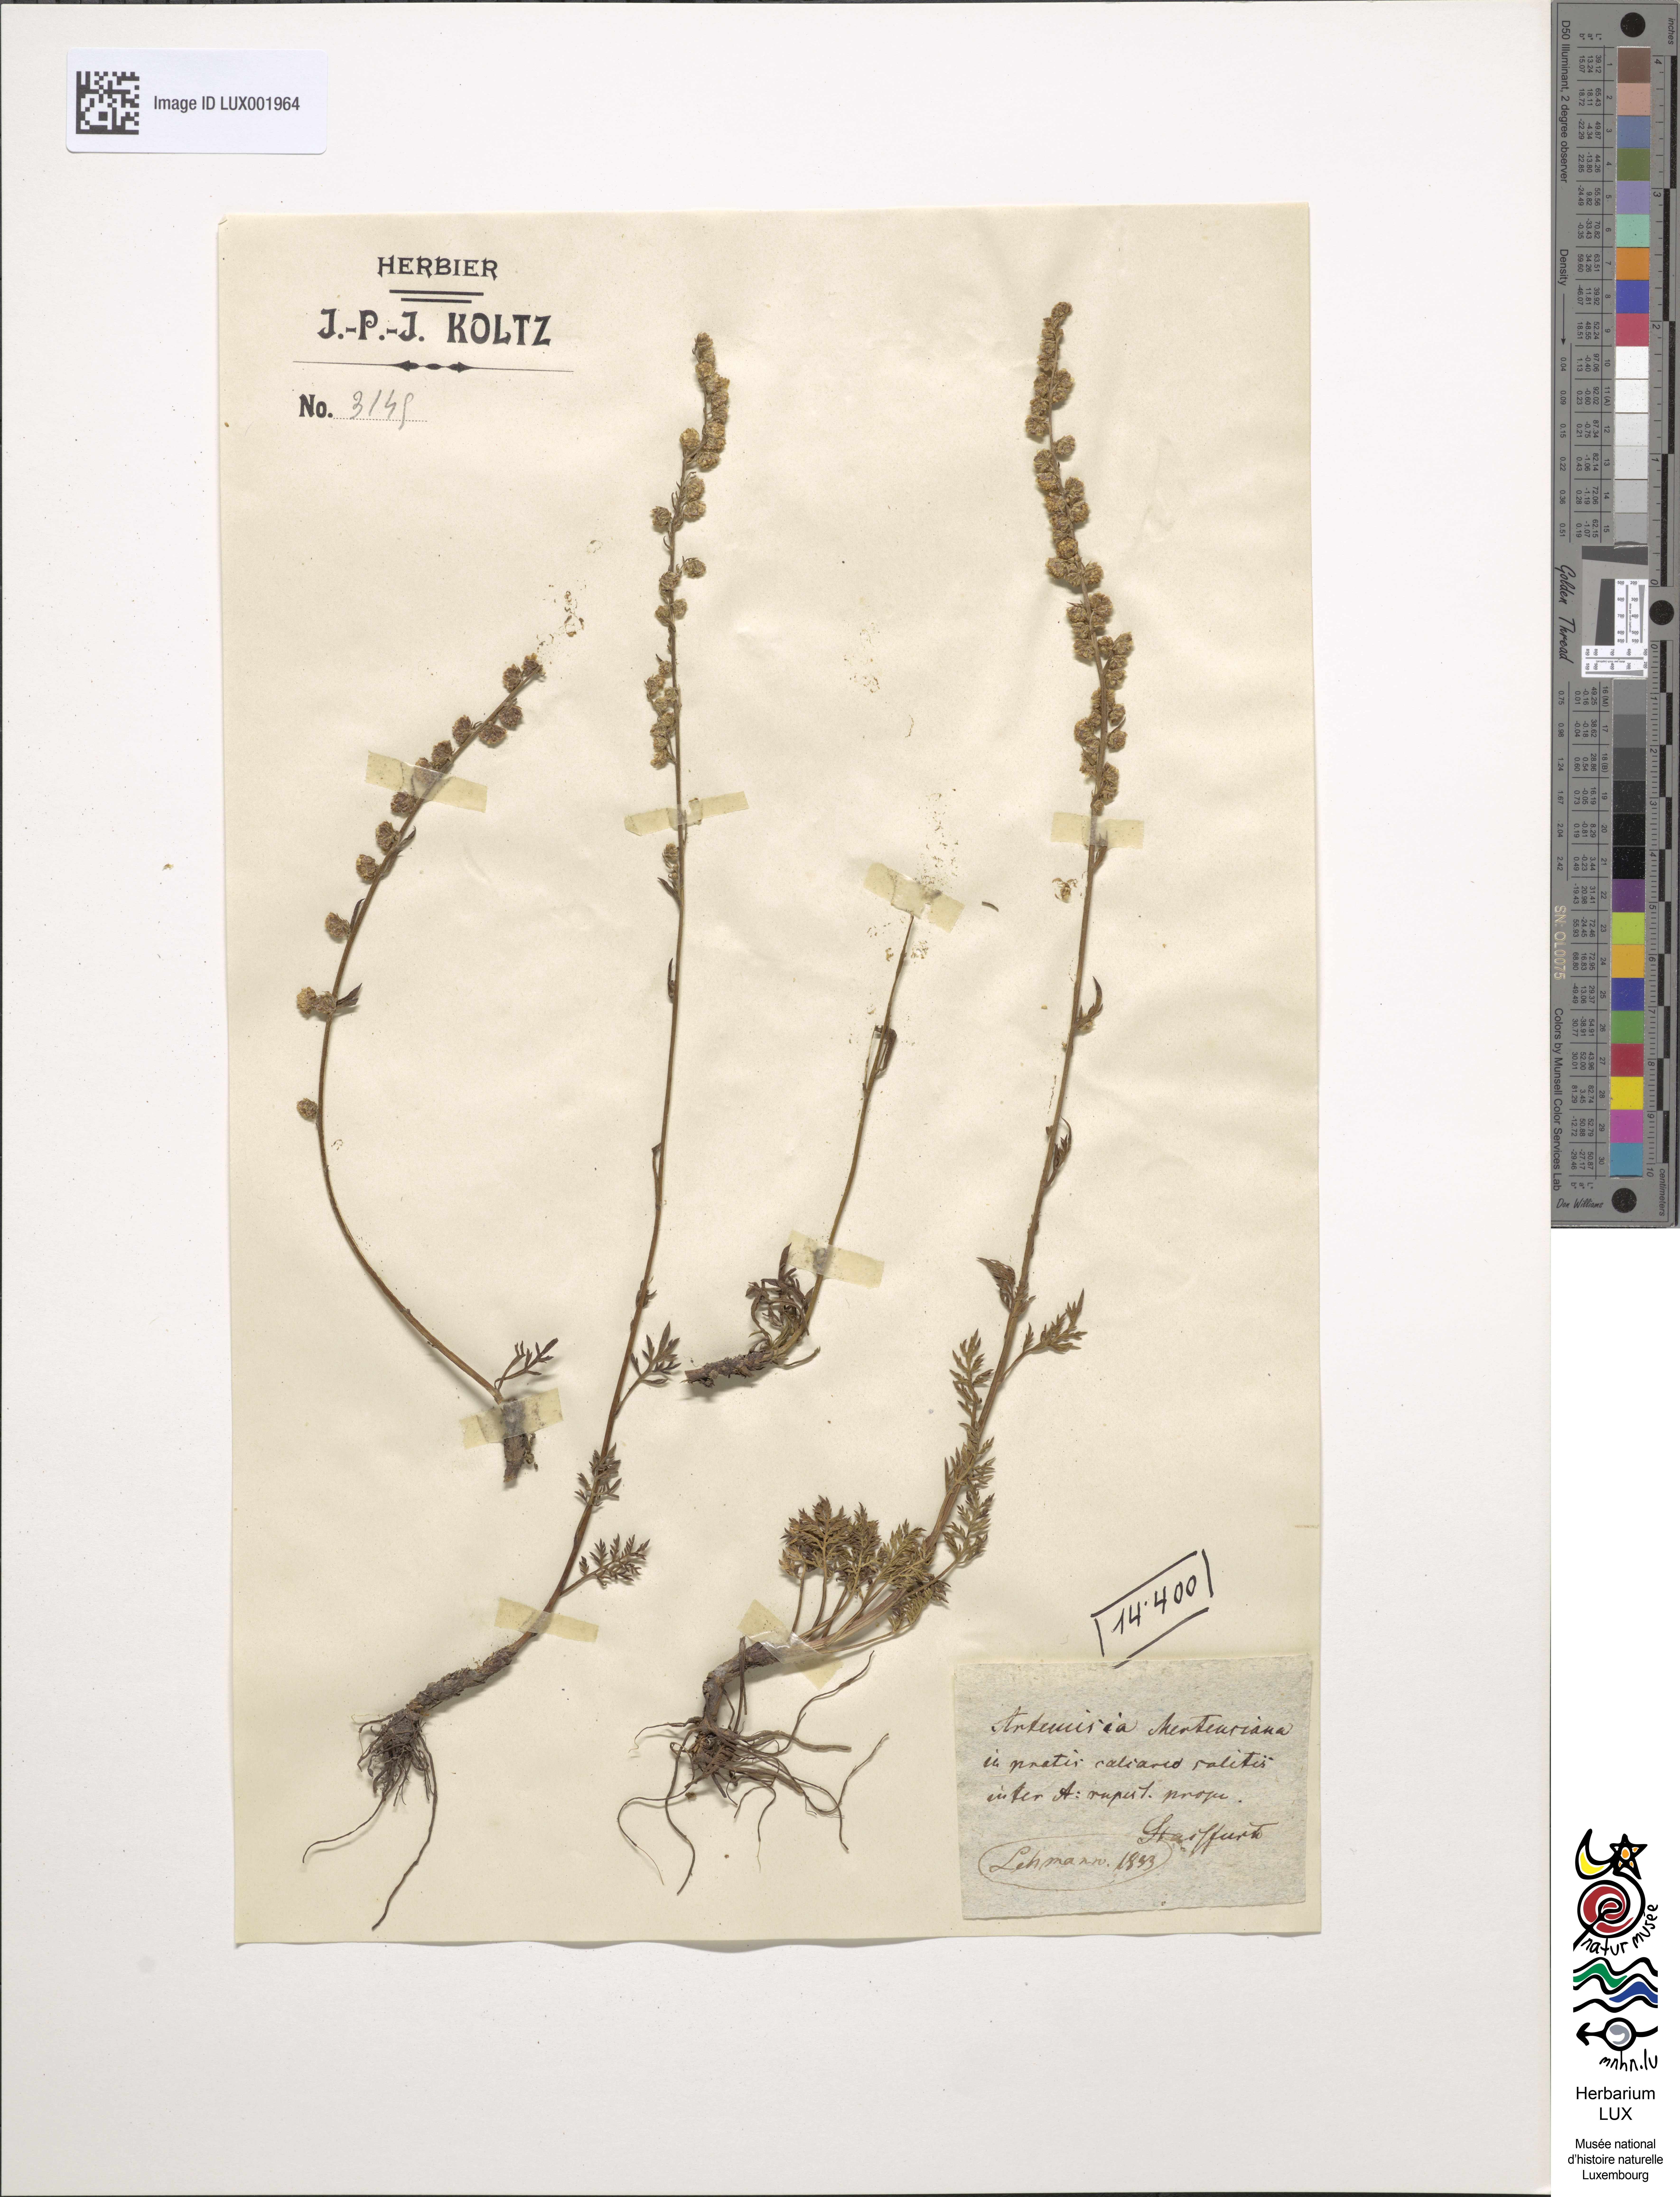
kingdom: Plantae
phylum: Tracheophyta
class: Magnoliopsida
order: Asterales
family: Asteraceae
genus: Artemisia
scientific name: Artemisia laciniata
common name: Siberian wormwood
